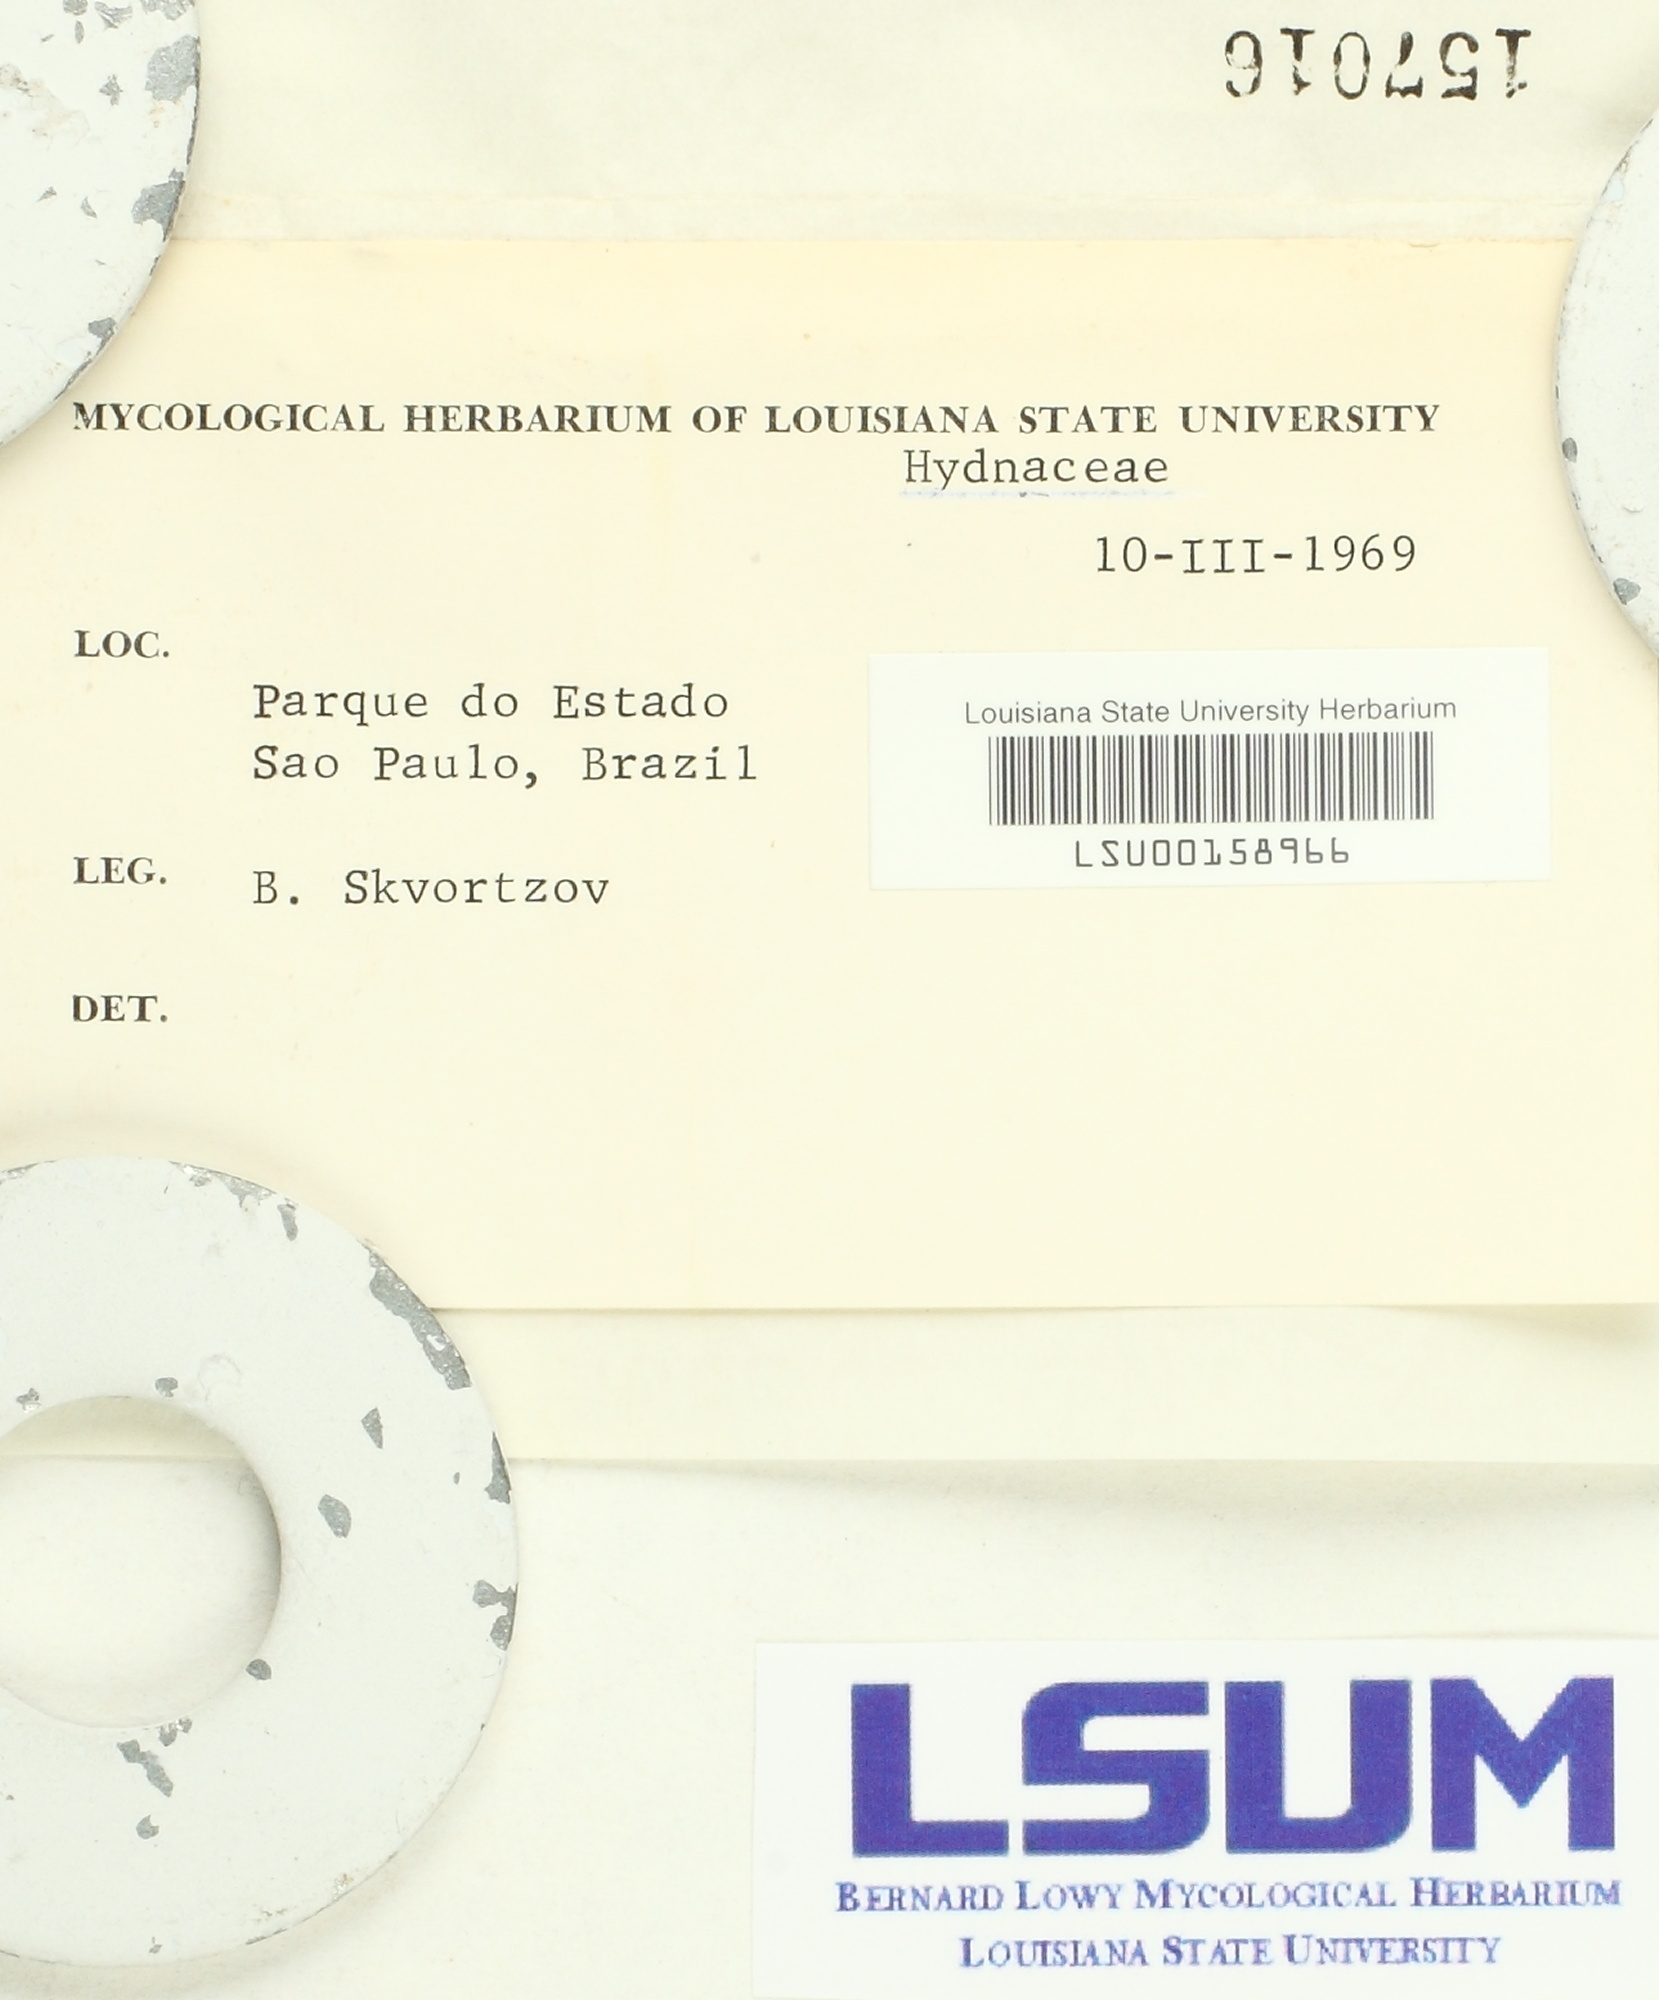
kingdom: Fungi
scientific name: Fungi
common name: Fungi
